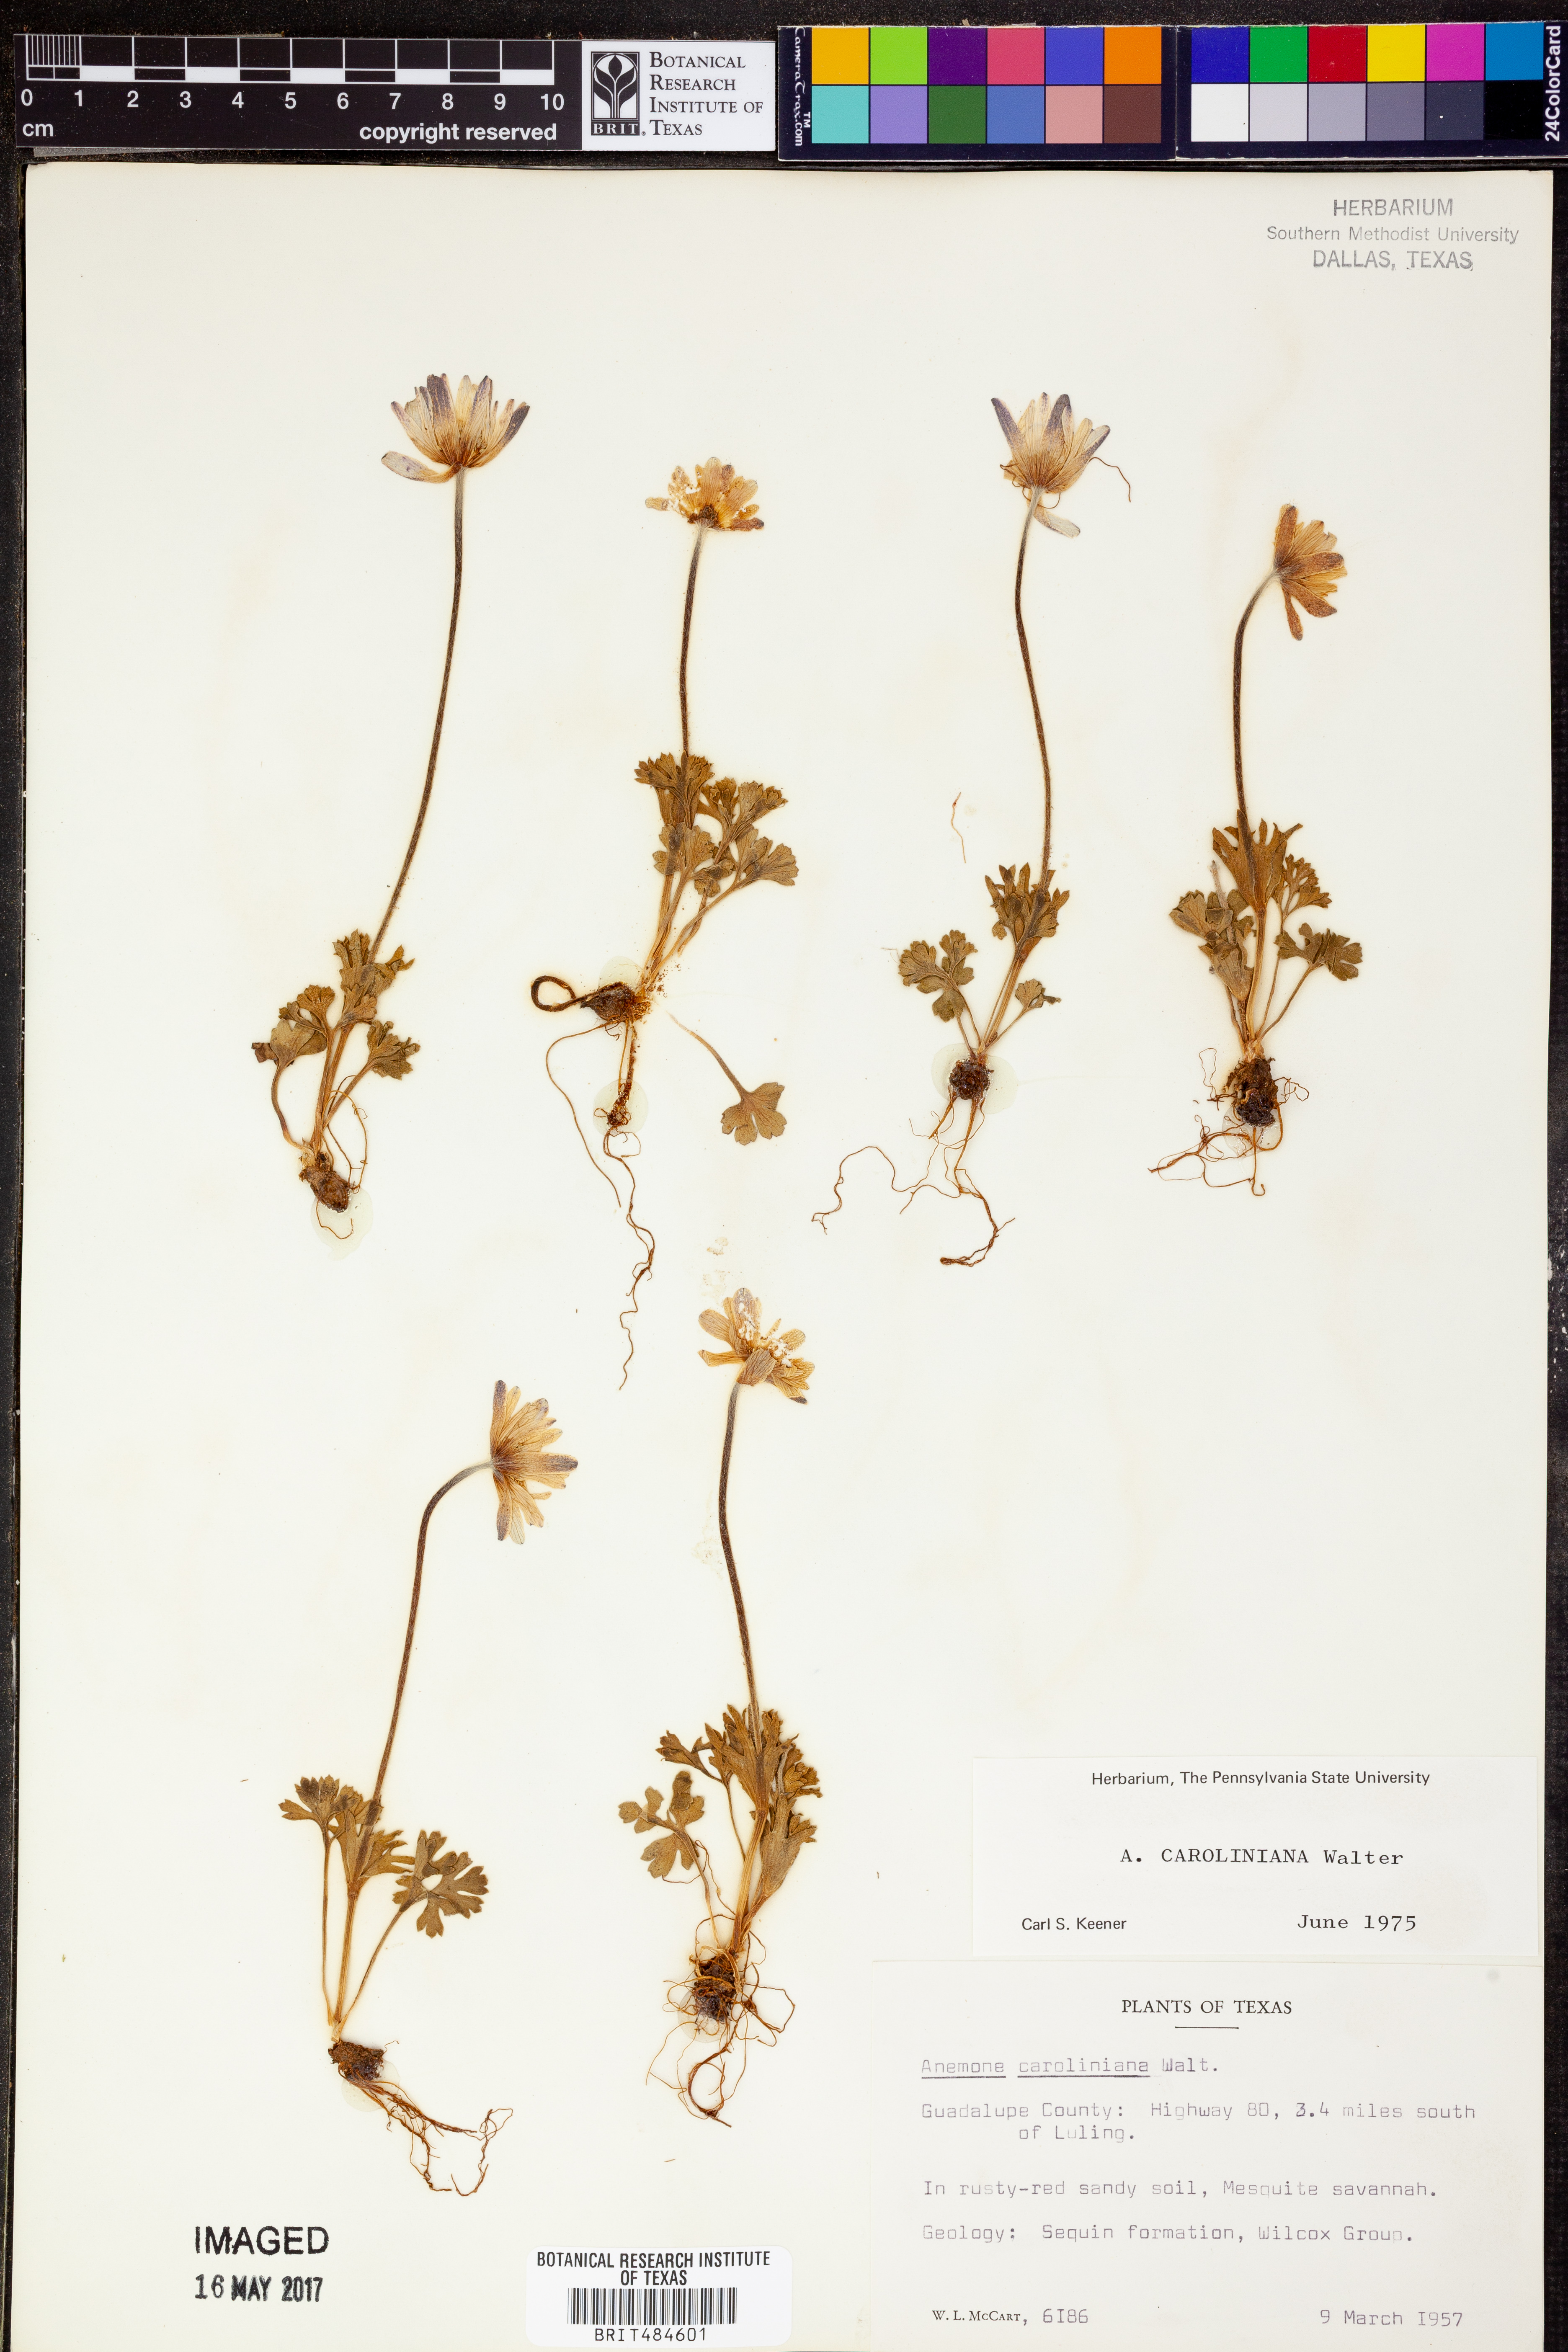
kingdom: Plantae
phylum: Tracheophyta
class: Magnoliopsida
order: Ranunculales
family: Ranunculaceae
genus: Anemone
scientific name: Anemone caroliniana
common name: Carolina anemone
